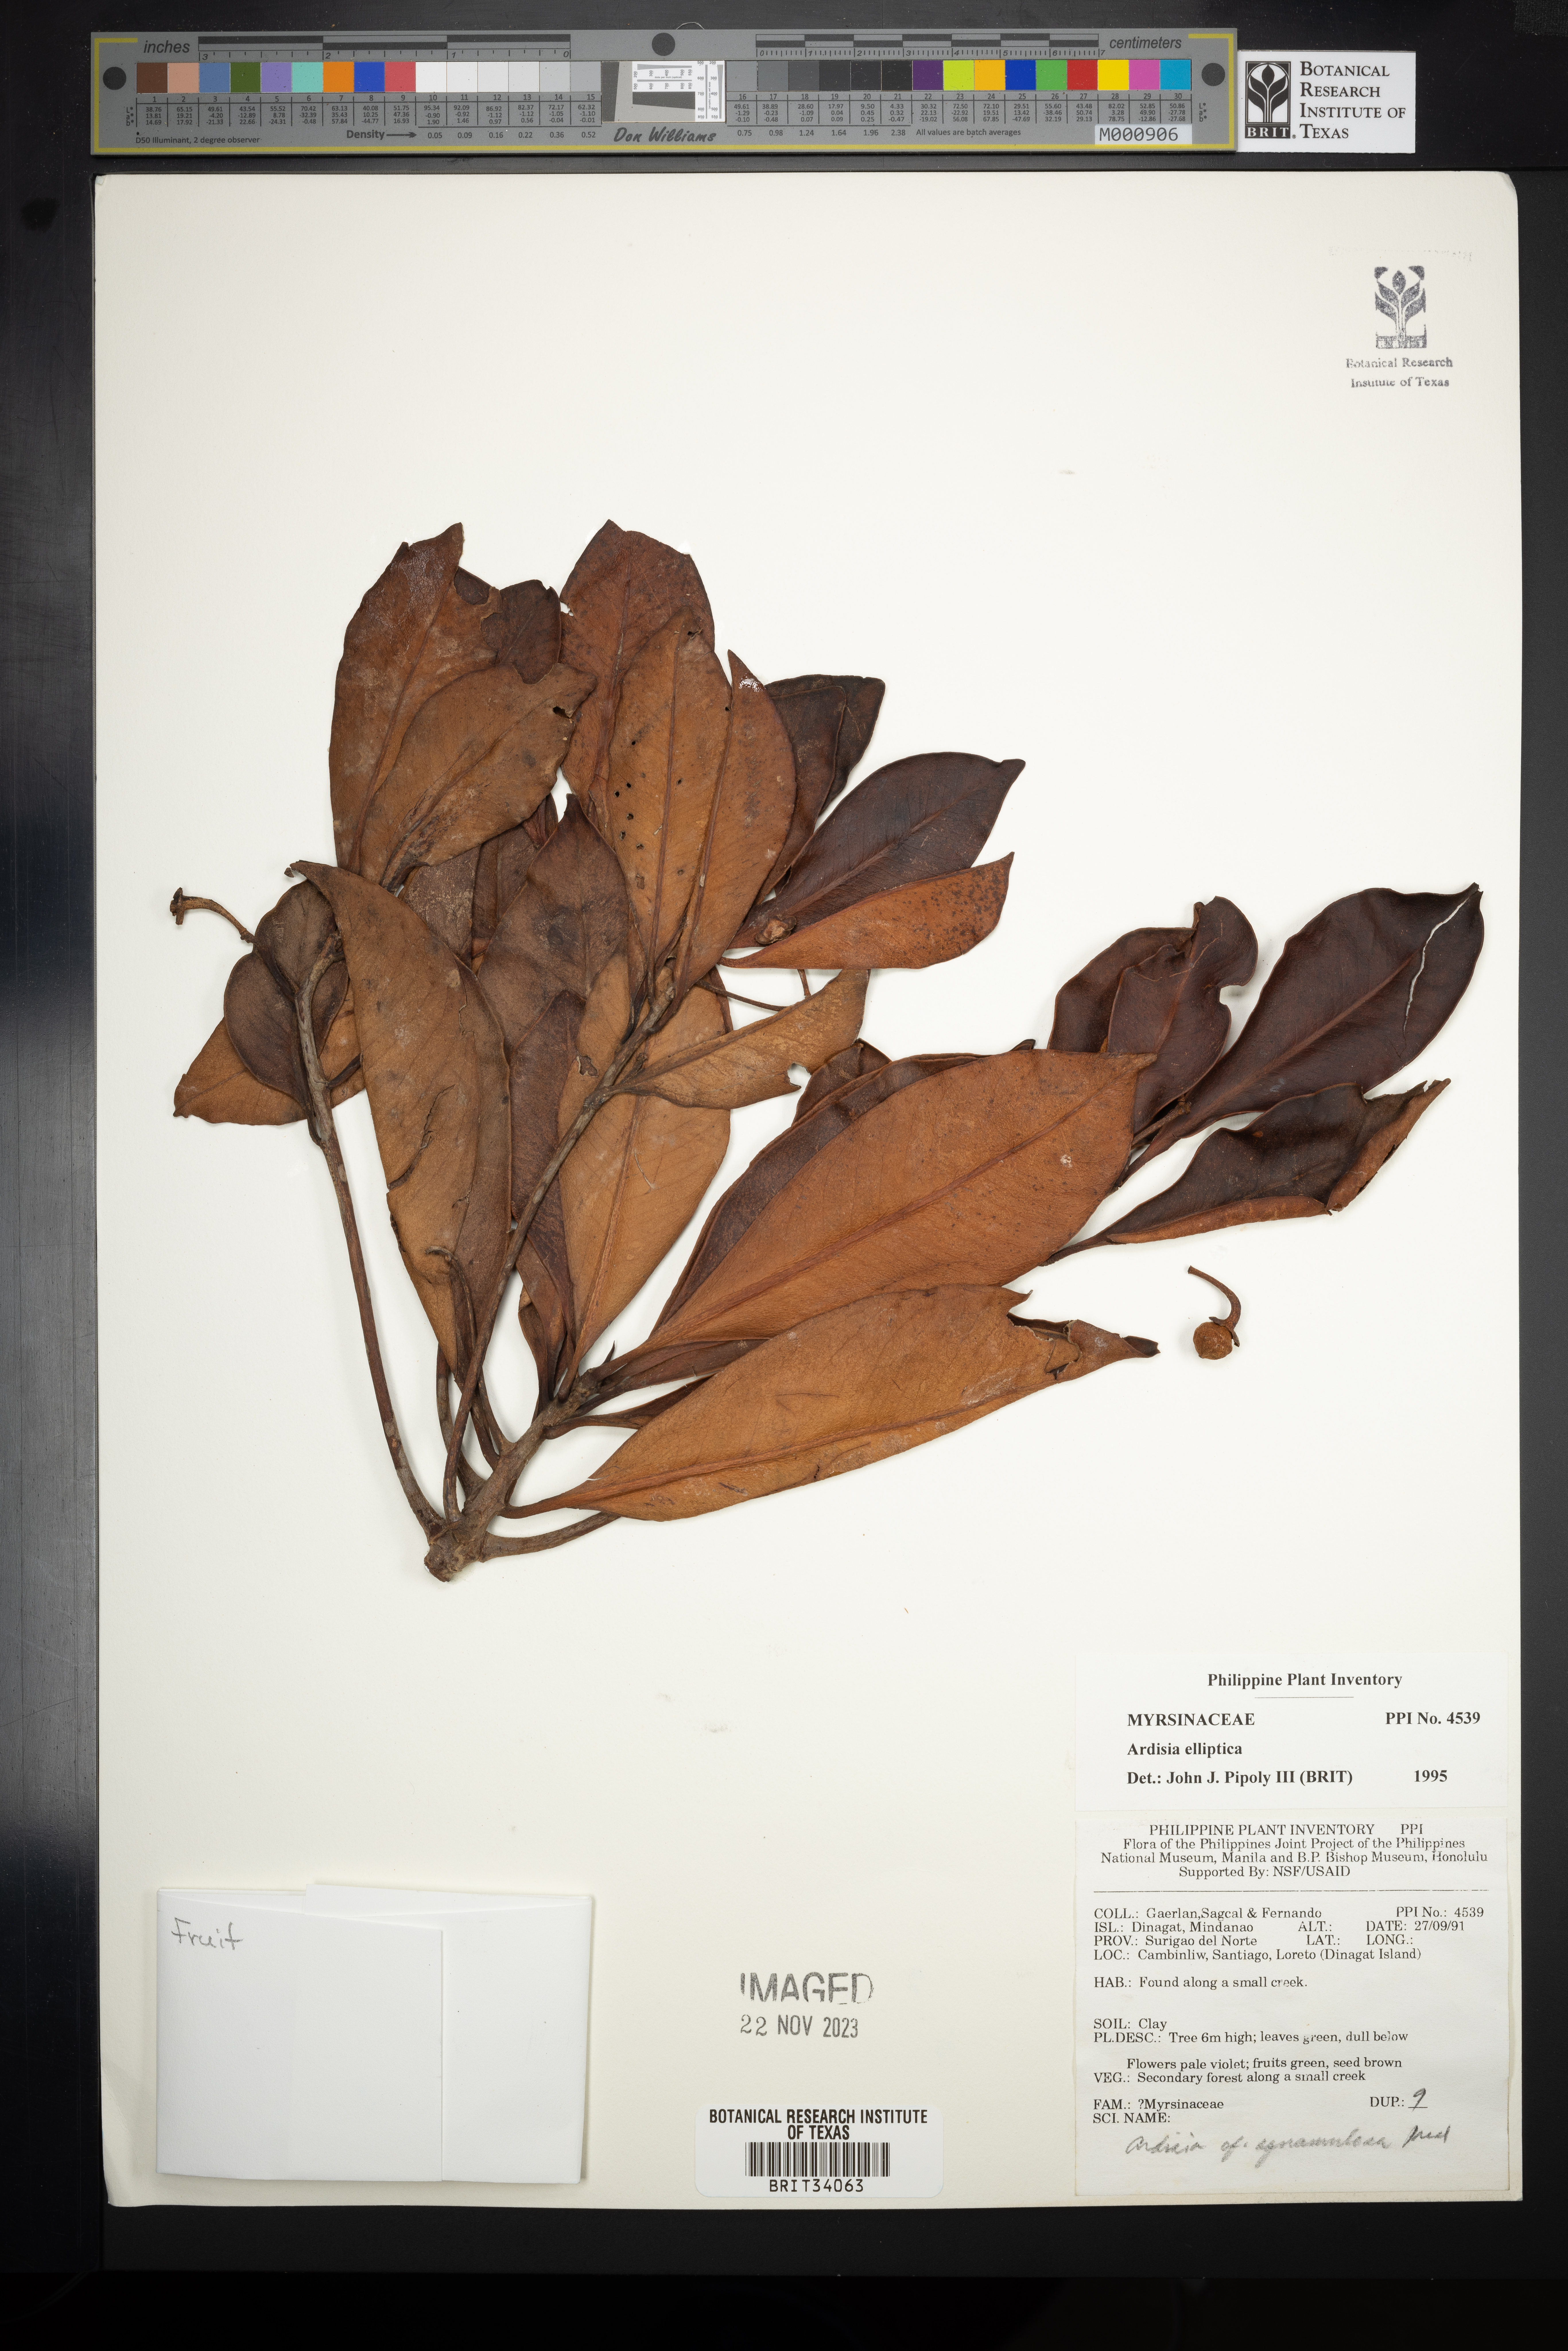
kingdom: Plantae
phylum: Tracheophyta
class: Magnoliopsida
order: Ericales
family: Primulaceae
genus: Ardisia
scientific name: Ardisia elliptica
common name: Shoebutton
